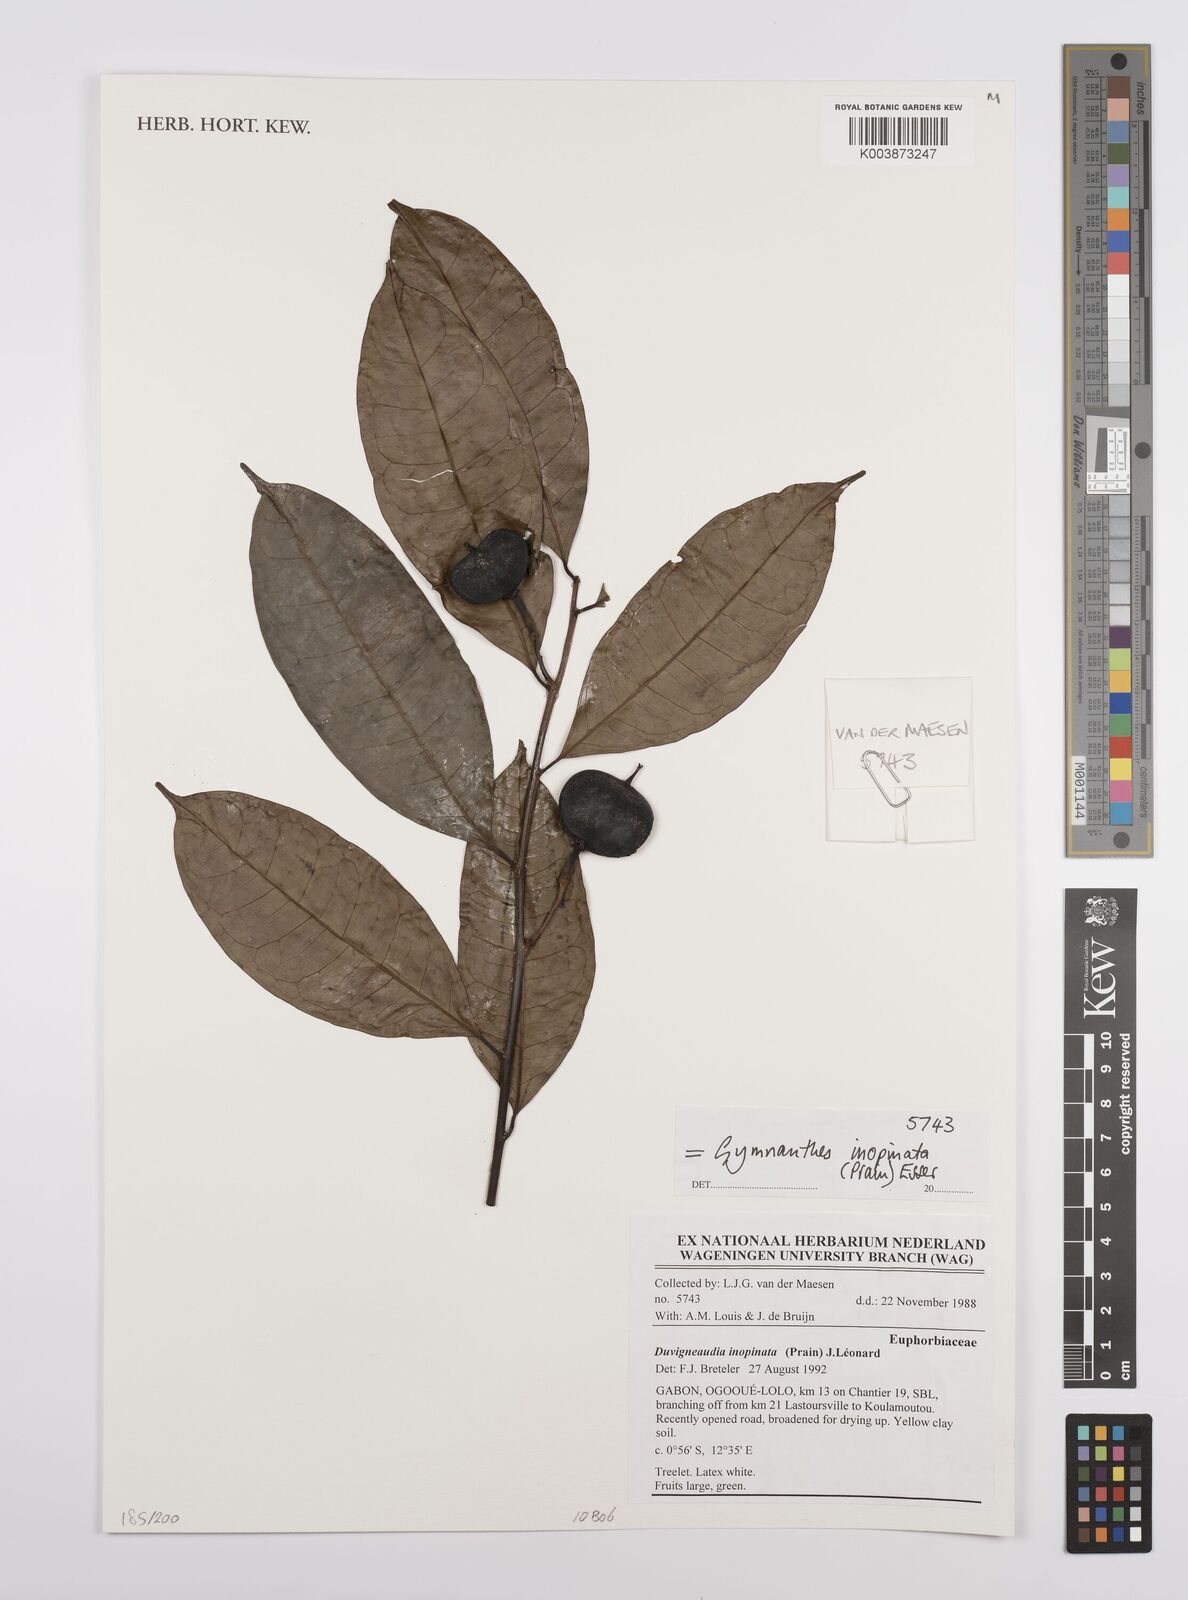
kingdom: Plantae
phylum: Tracheophyta
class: Magnoliopsida
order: Malpighiales
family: Euphorbiaceae
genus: Gymnanthes
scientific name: Gymnanthes inopinata
